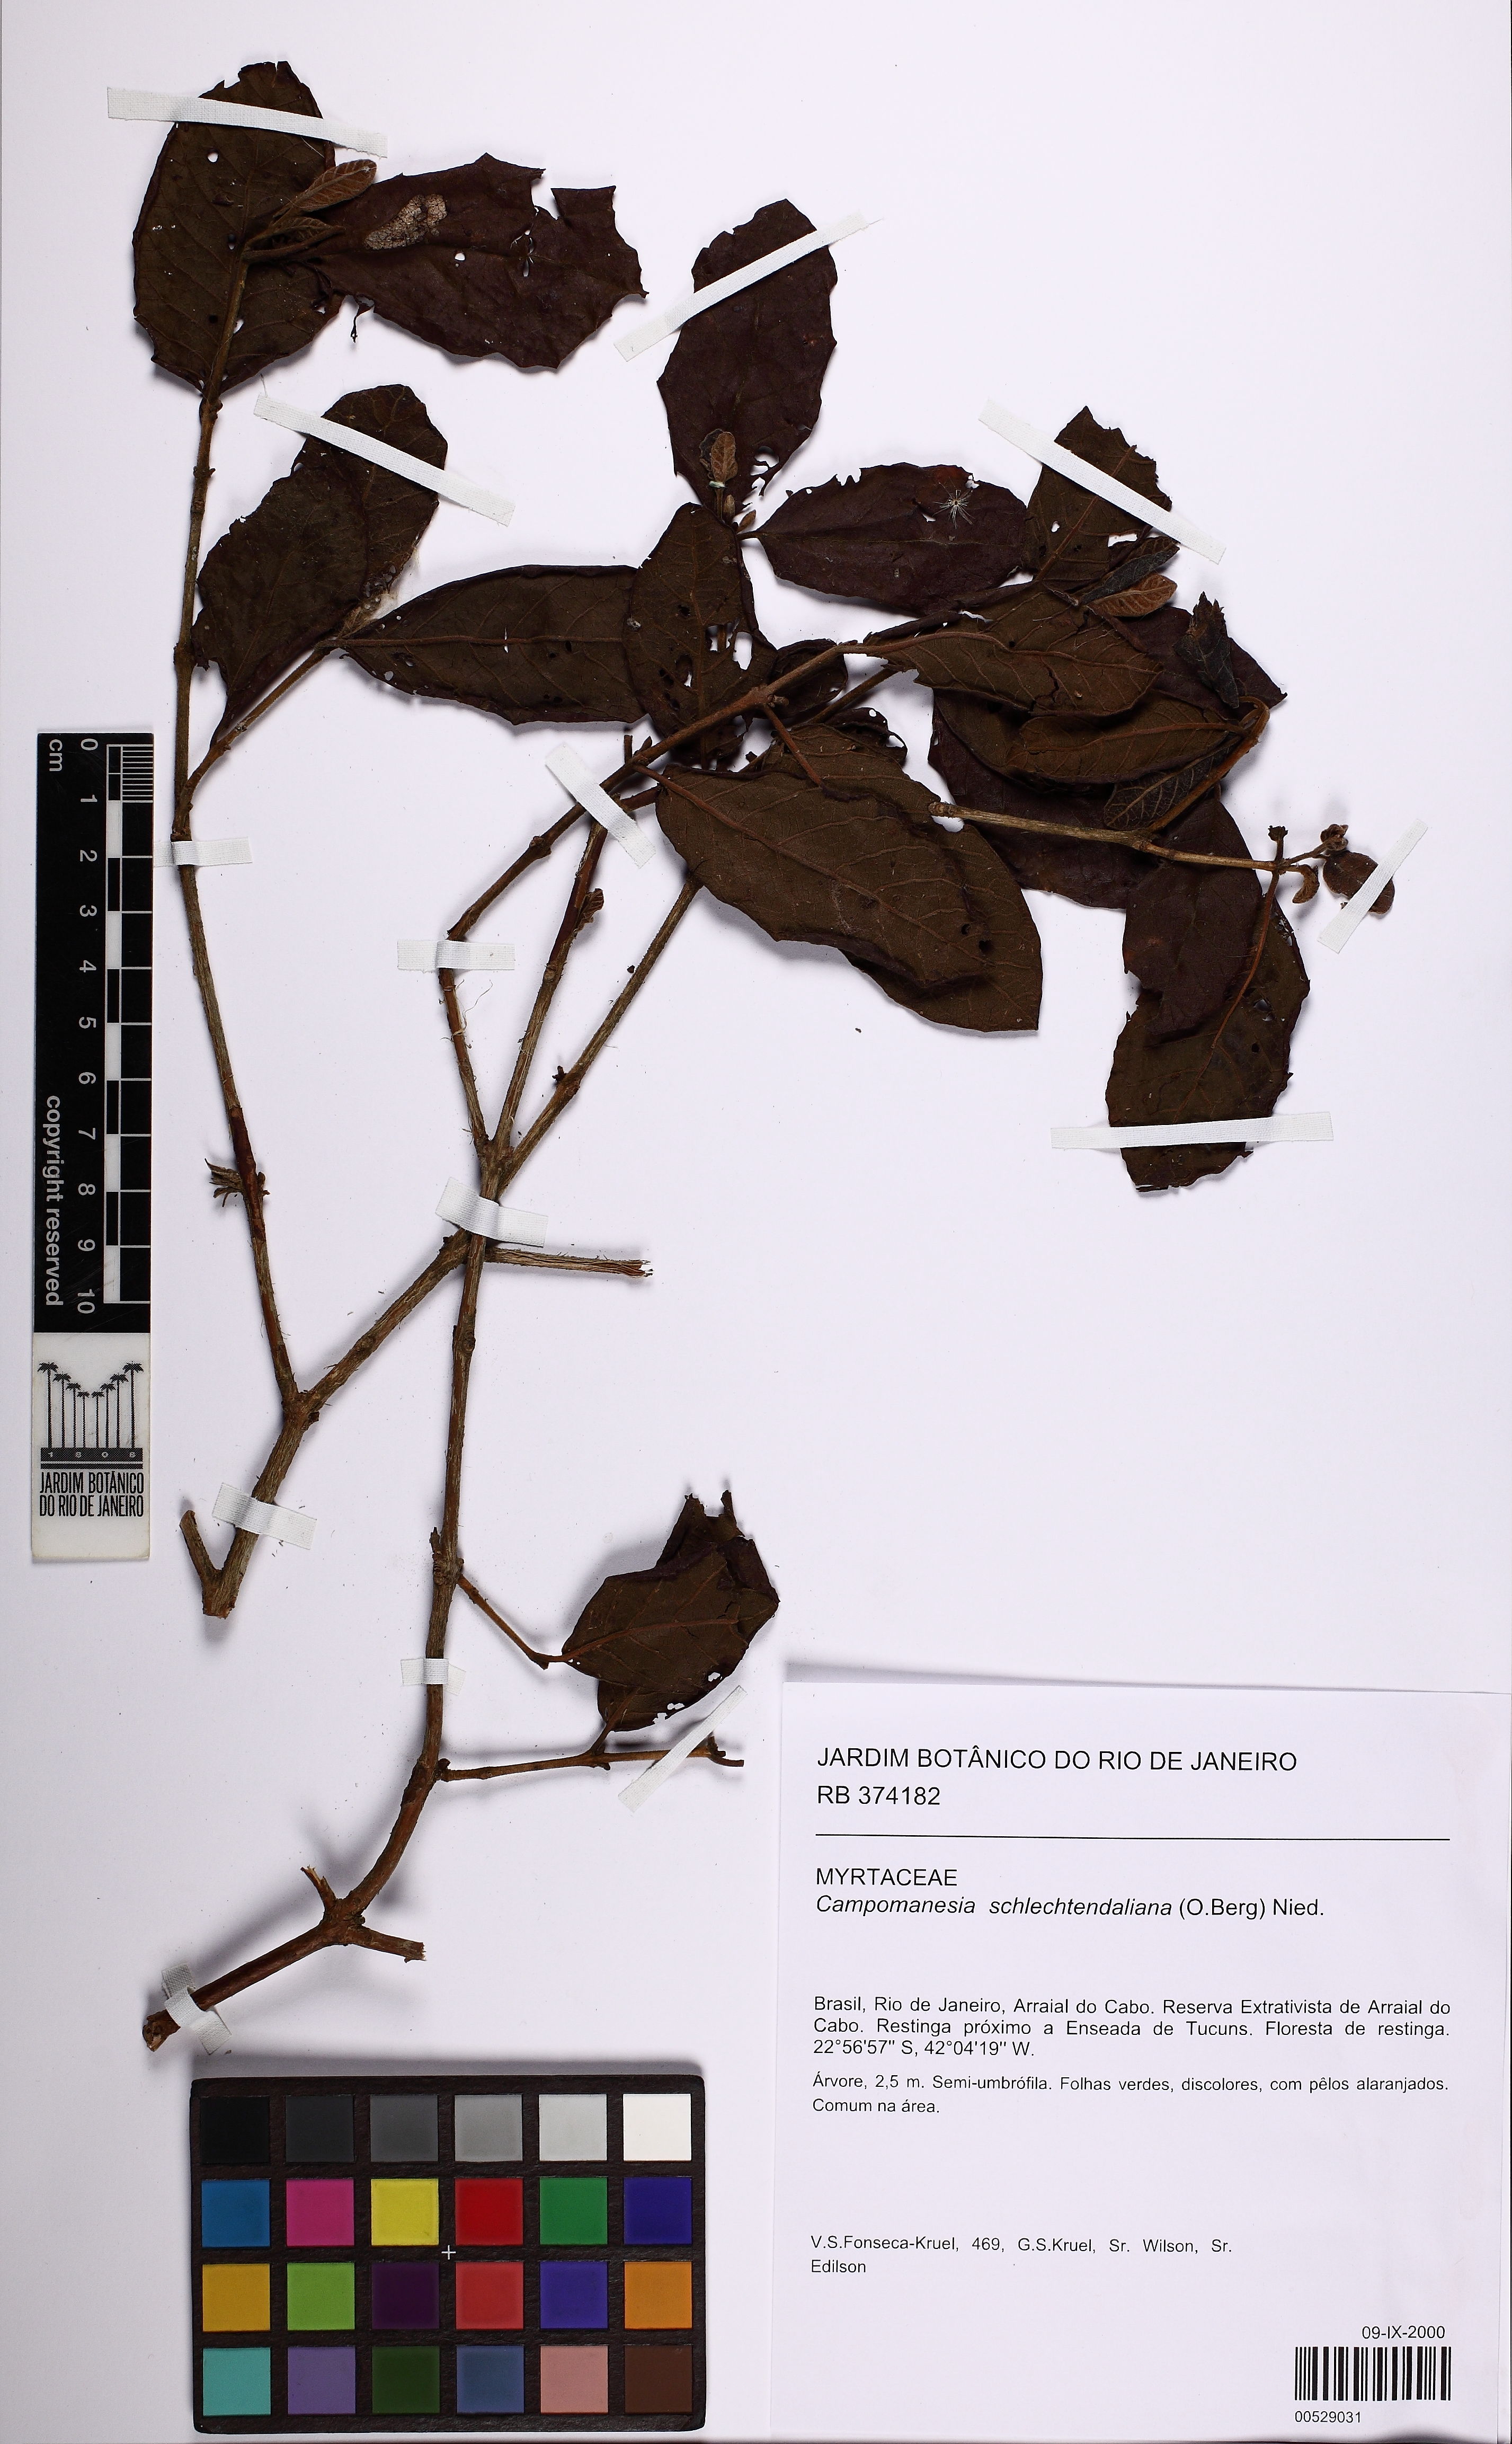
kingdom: Plantae
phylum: Tracheophyta
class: Magnoliopsida
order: Myrtales
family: Myrtaceae
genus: Campomanesia
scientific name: Campomanesia schlechtendaliana
